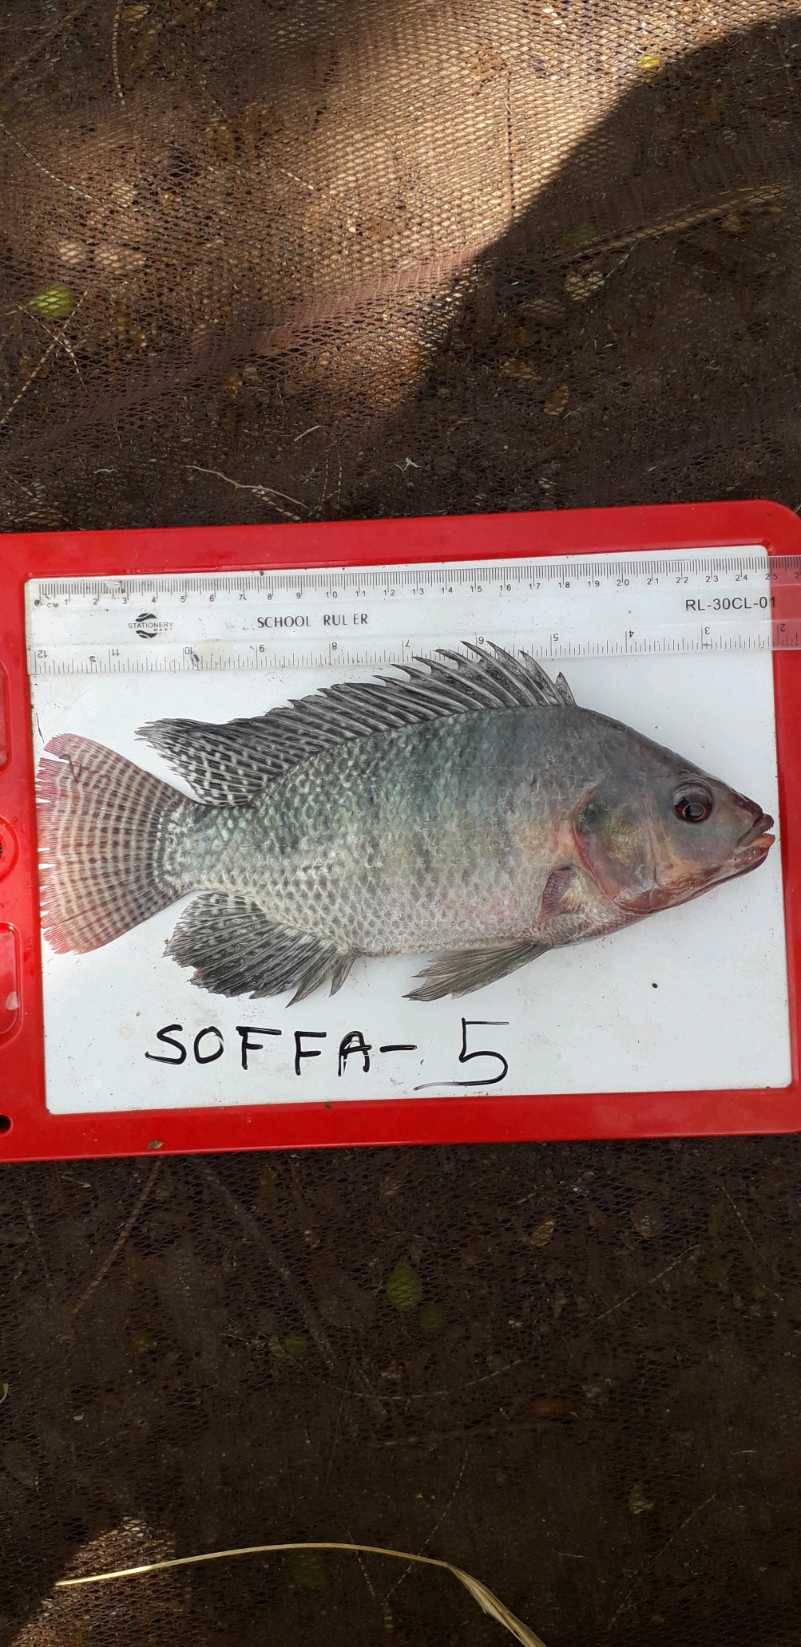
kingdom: Animalia
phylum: Chordata
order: Perciformes
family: Cichlidae
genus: Oreochromis
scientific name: Oreochromis niloticus
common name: Nile tilapia
